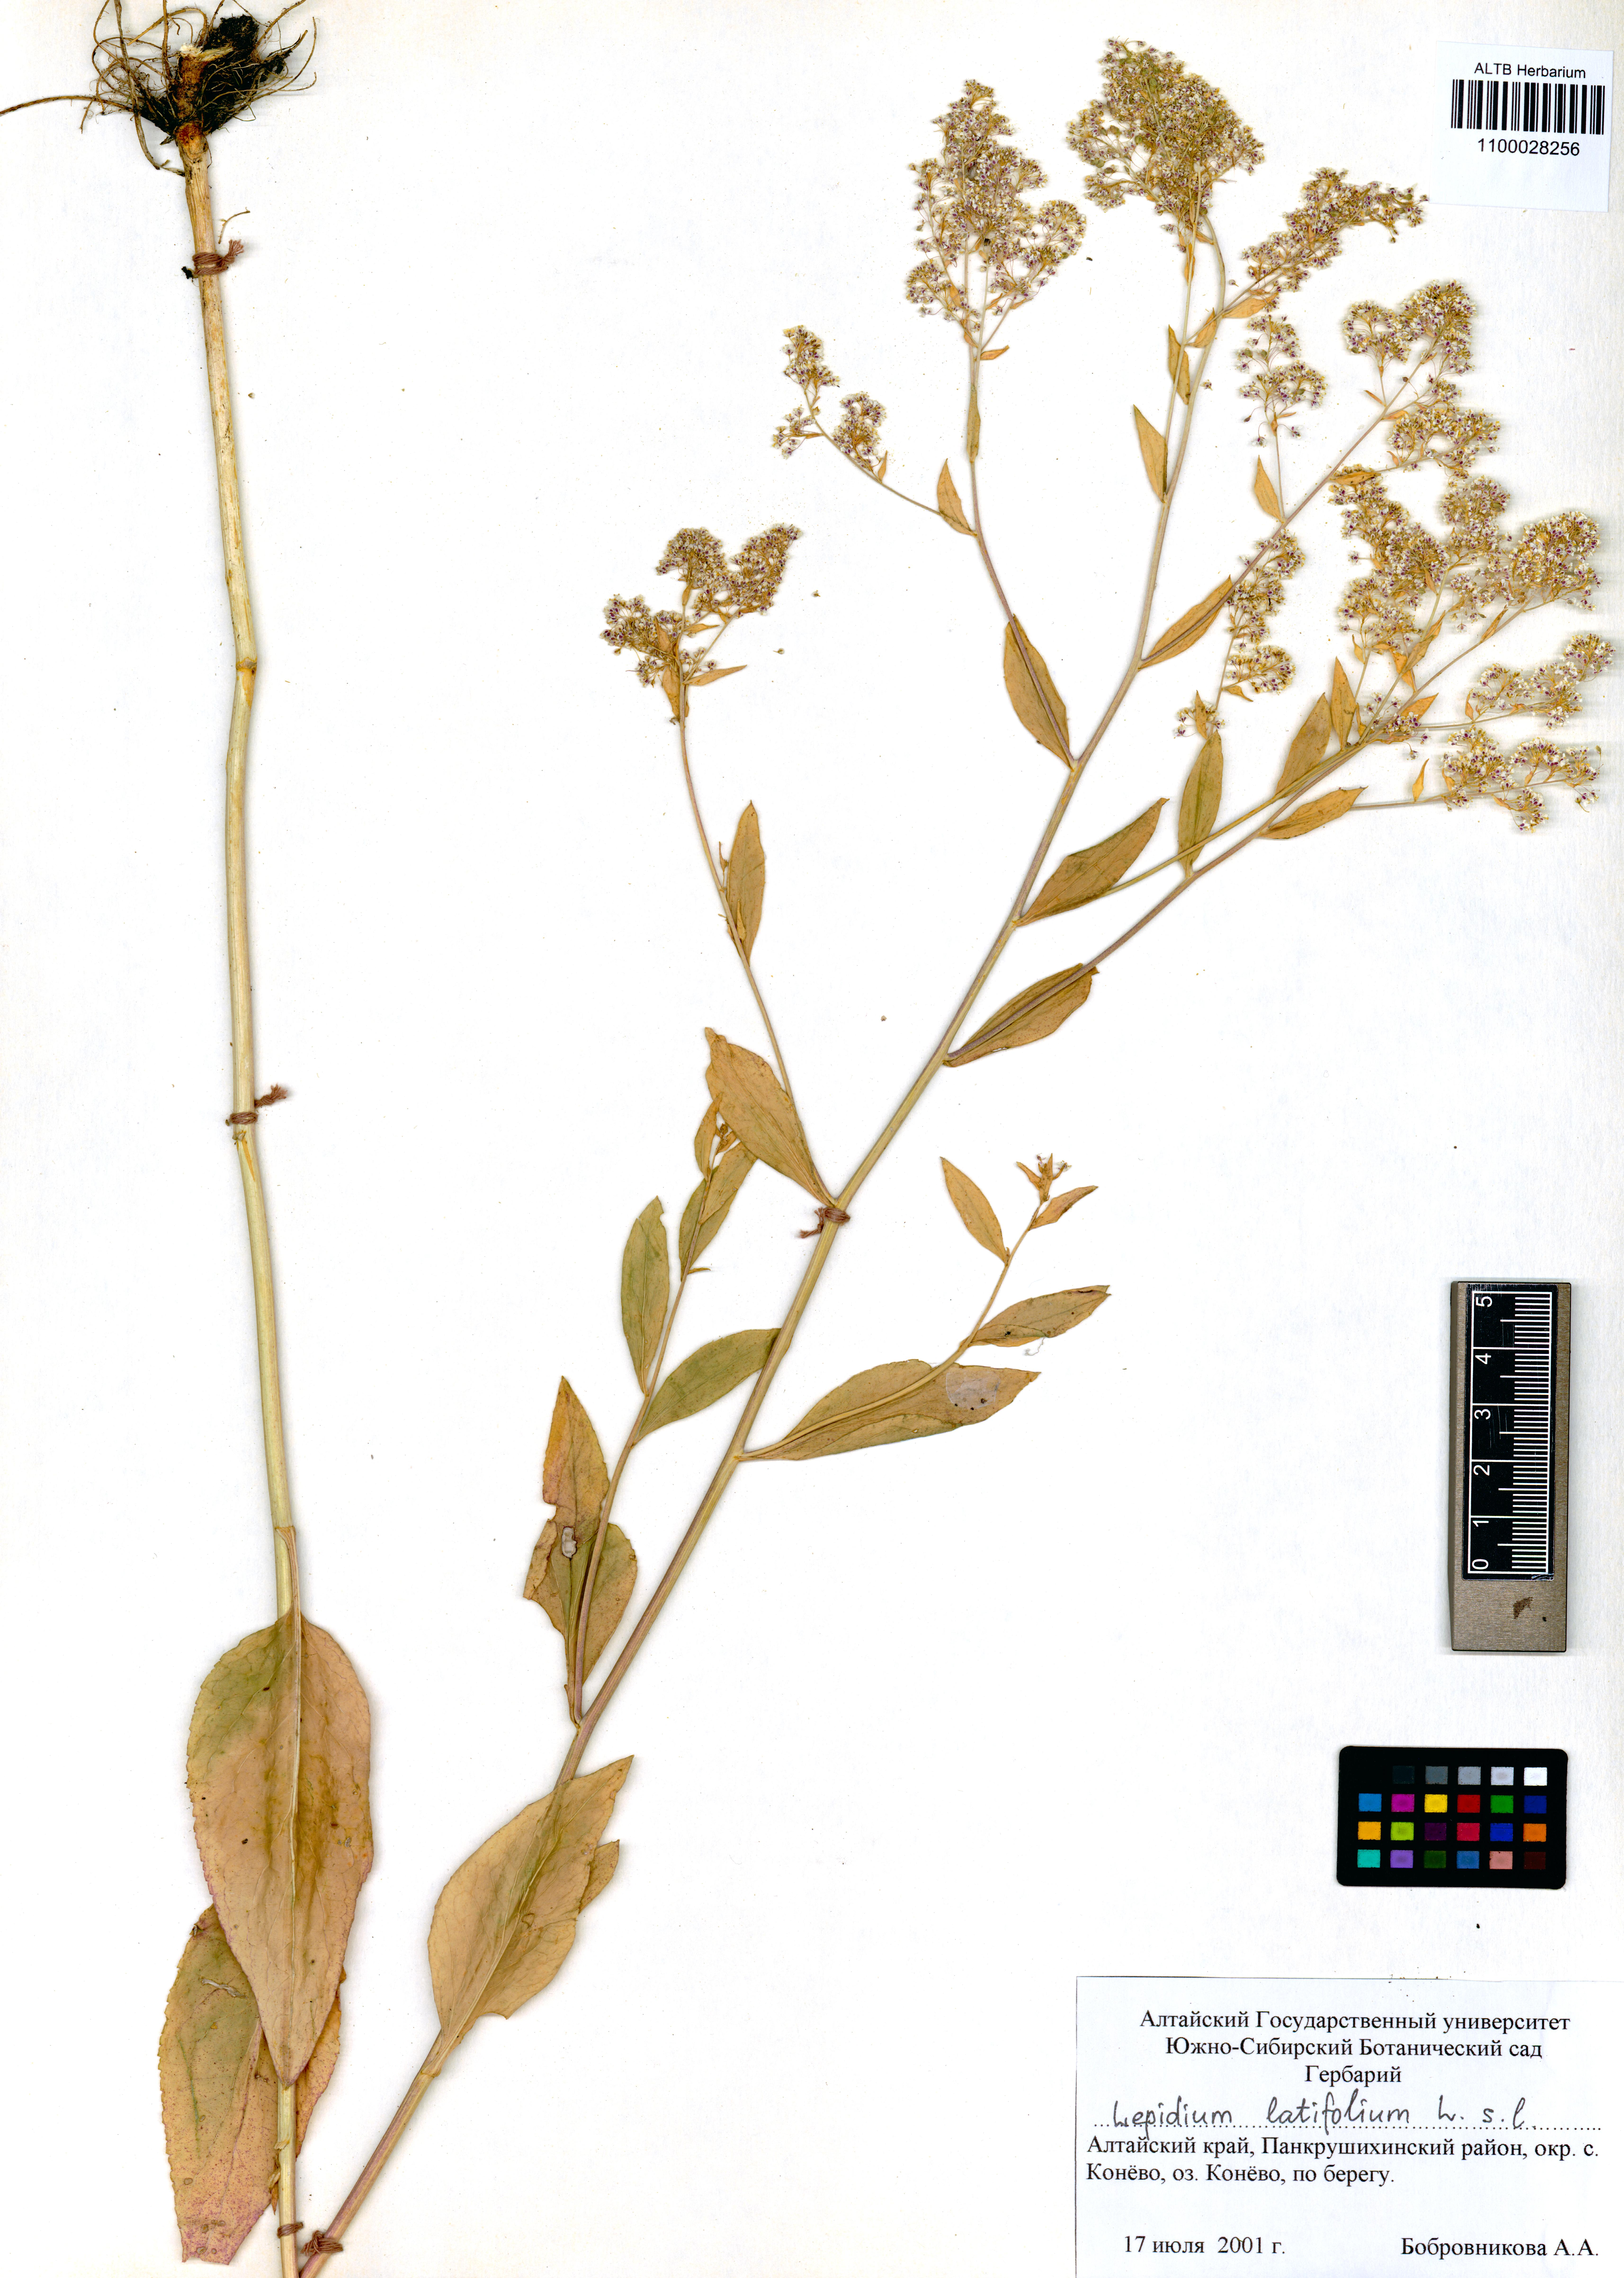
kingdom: Plantae
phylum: Tracheophyta
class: Magnoliopsida
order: Brassicales
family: Brassicaceae
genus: Lepidium
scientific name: Lepidium latifolium
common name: Dittander
